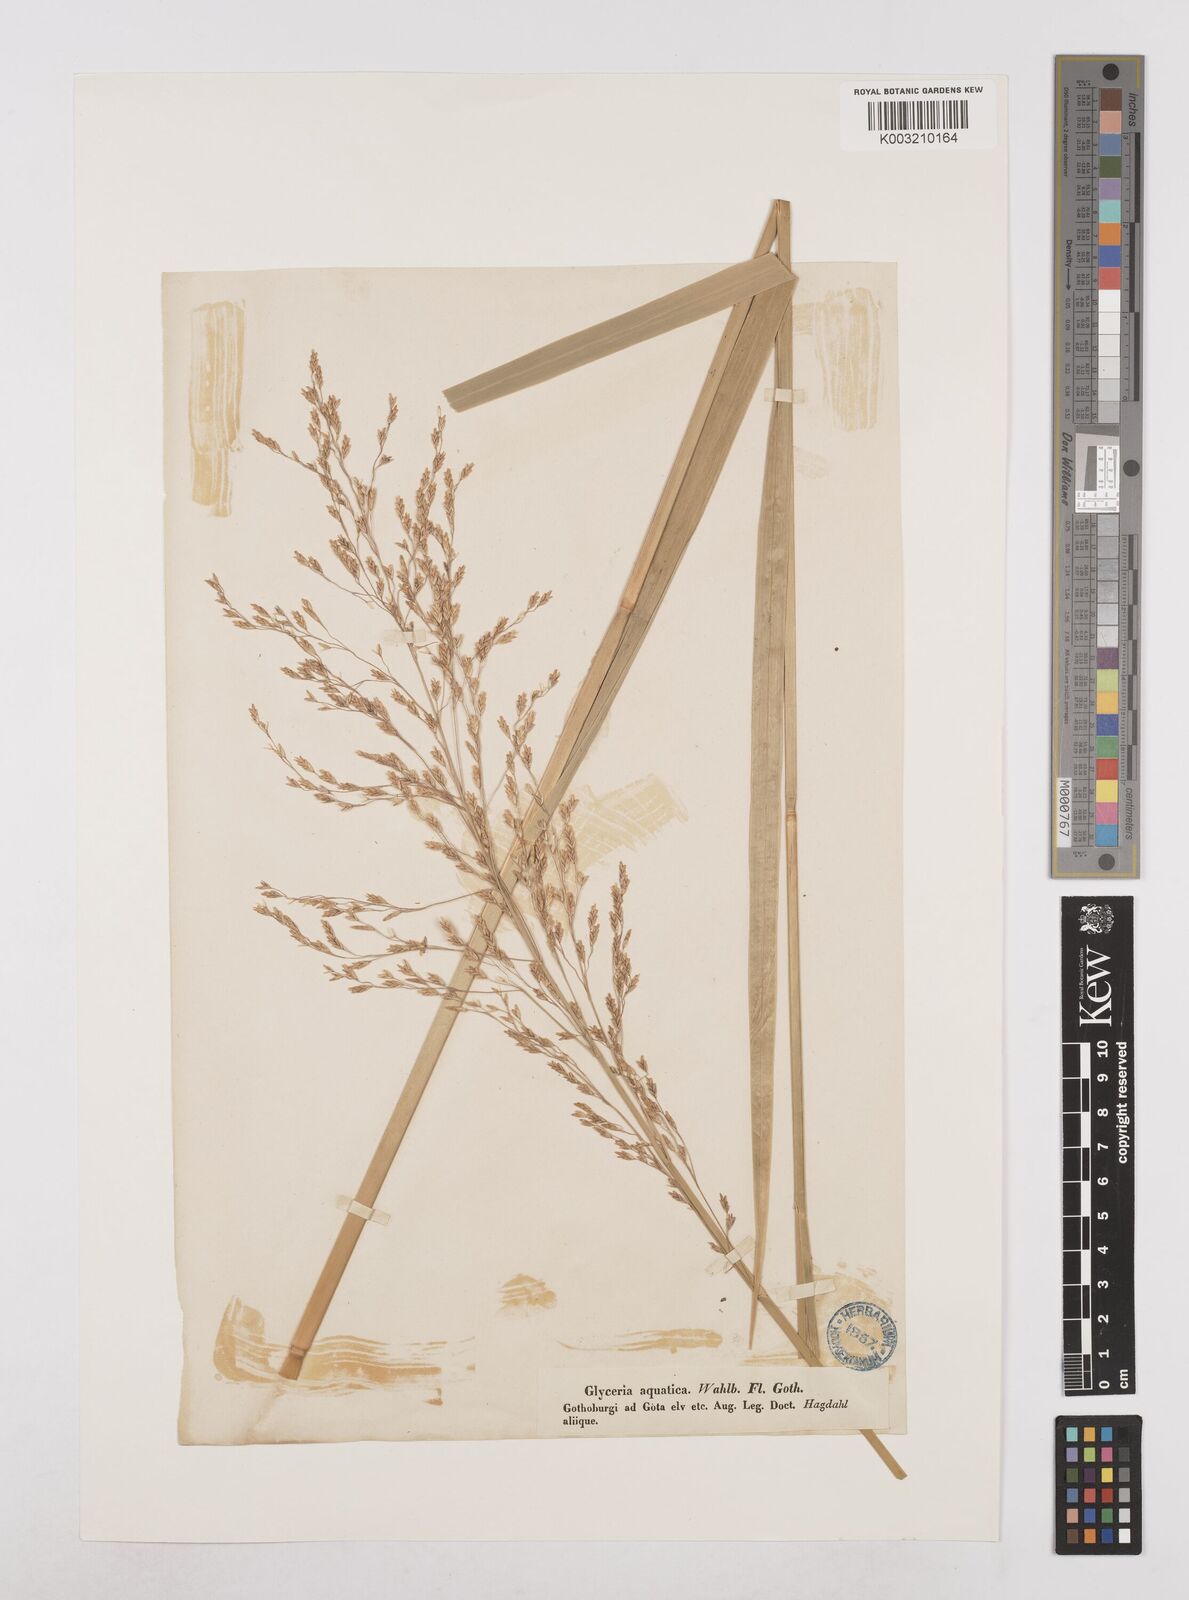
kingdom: Plantae
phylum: Tracheophyta
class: Liliopsida
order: Poales
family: Poaceae
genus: Glyceria
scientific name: Glyceria maxima
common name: Reed mannagrass
